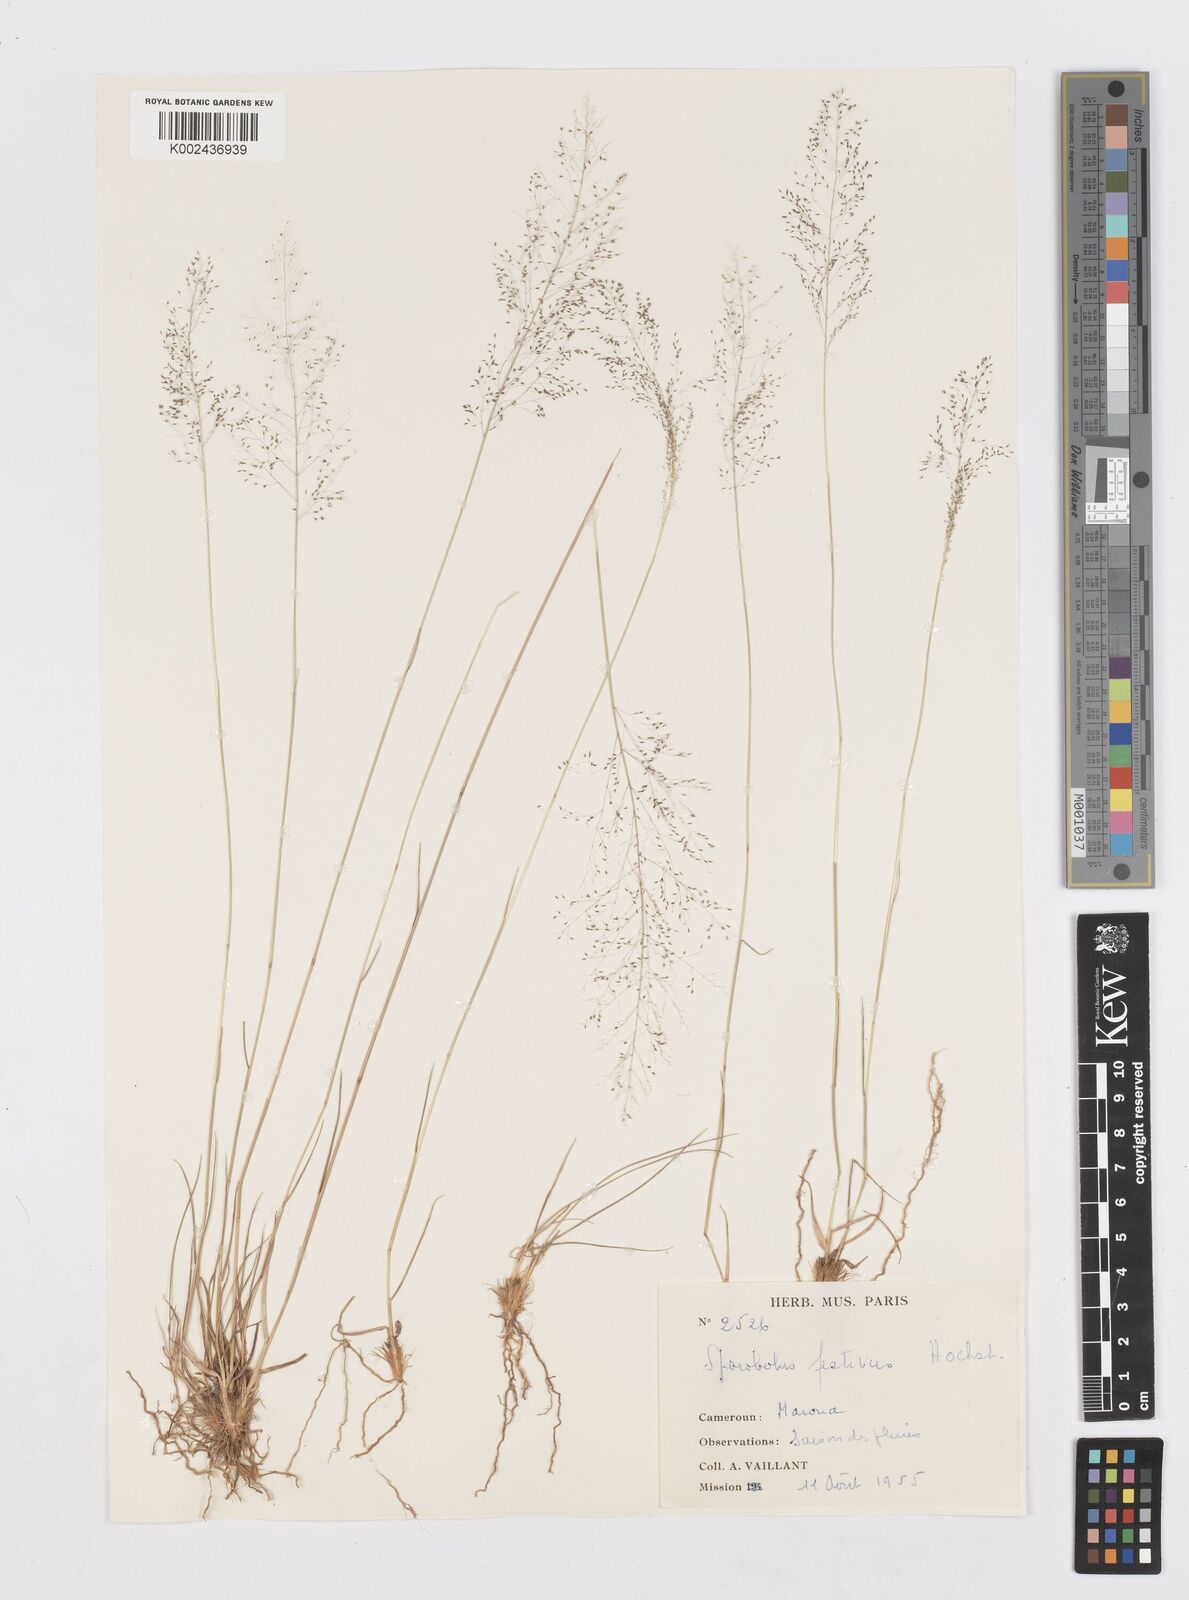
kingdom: Plantae
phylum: Tracheophyta
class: Liliopsida
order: Poales
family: Poaceae
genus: Sporobolus
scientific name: Sporobolus festivus
